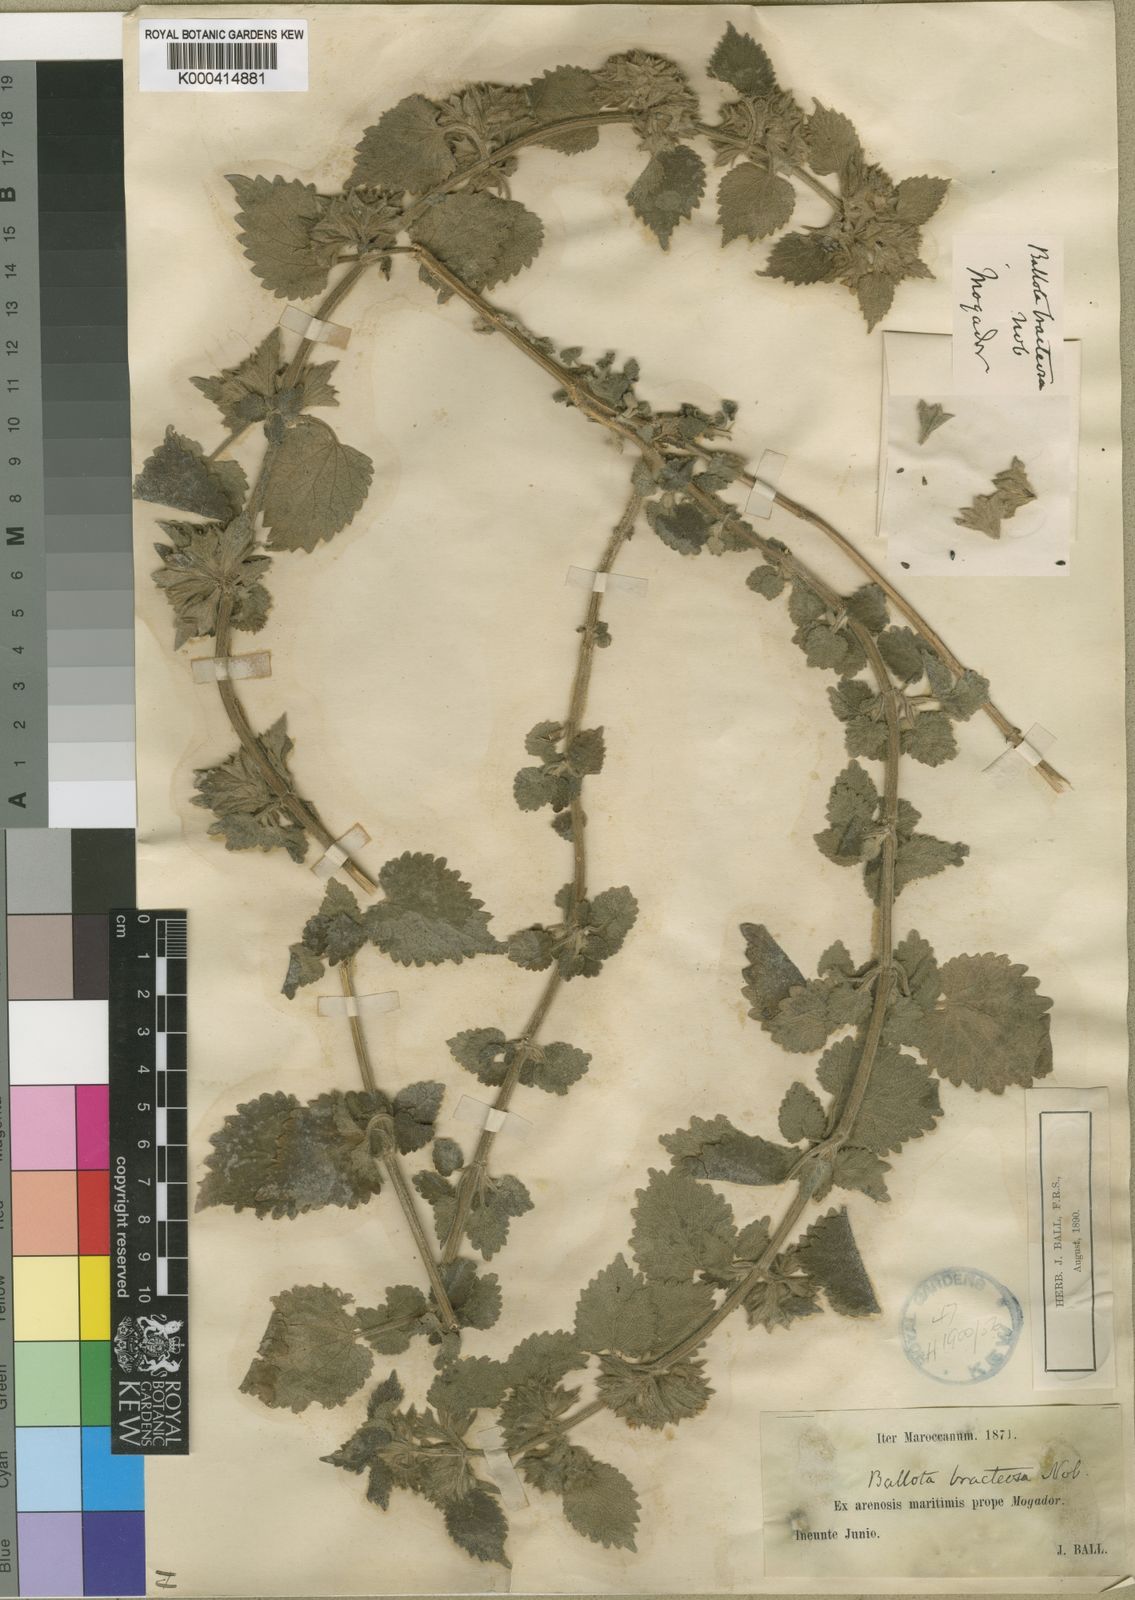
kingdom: Plantae
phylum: Tracheophyta
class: Magnoliopsida
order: Lamiales
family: Lamiaceae
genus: Ballota
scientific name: Ballota nigra
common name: Black horehound
